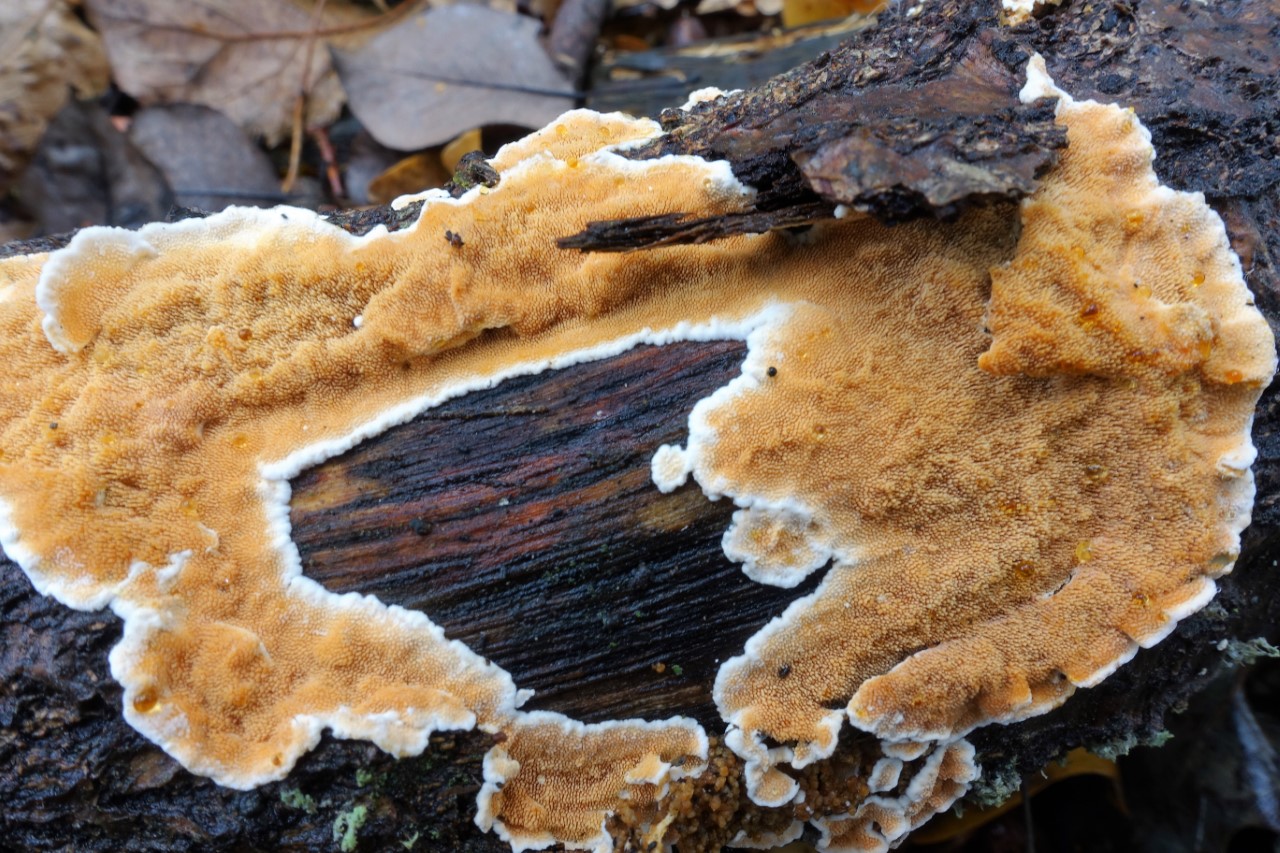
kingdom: Fungi
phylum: Basidiomycota
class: Agaricomycetes
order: Polyporales
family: Steccherinaceae
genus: Steccherinum
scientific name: Steccherinum ochraceum
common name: almindelig skønpig
